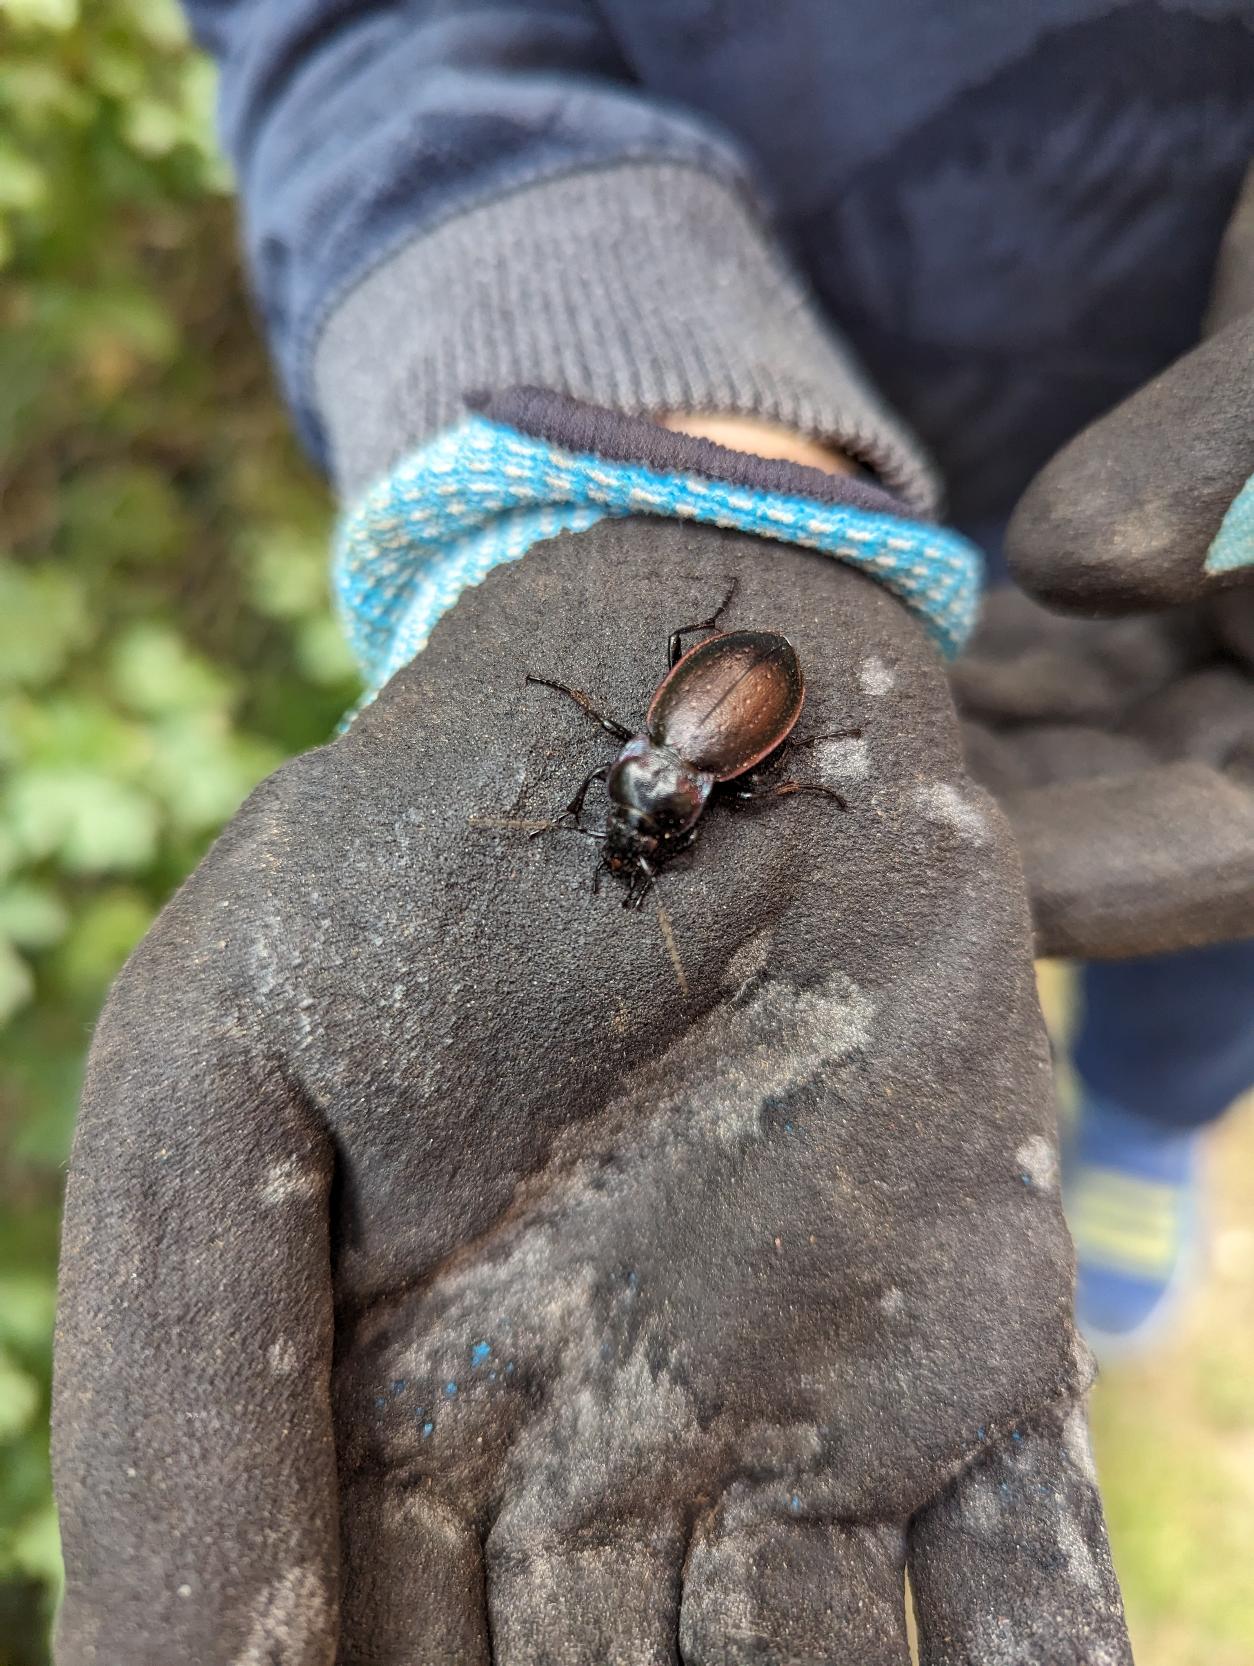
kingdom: Animalia
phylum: Arthropoda
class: Insecta
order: Coleoptera
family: Carabidae
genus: Carabus
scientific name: Carabus nemoralis
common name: Kratløber
